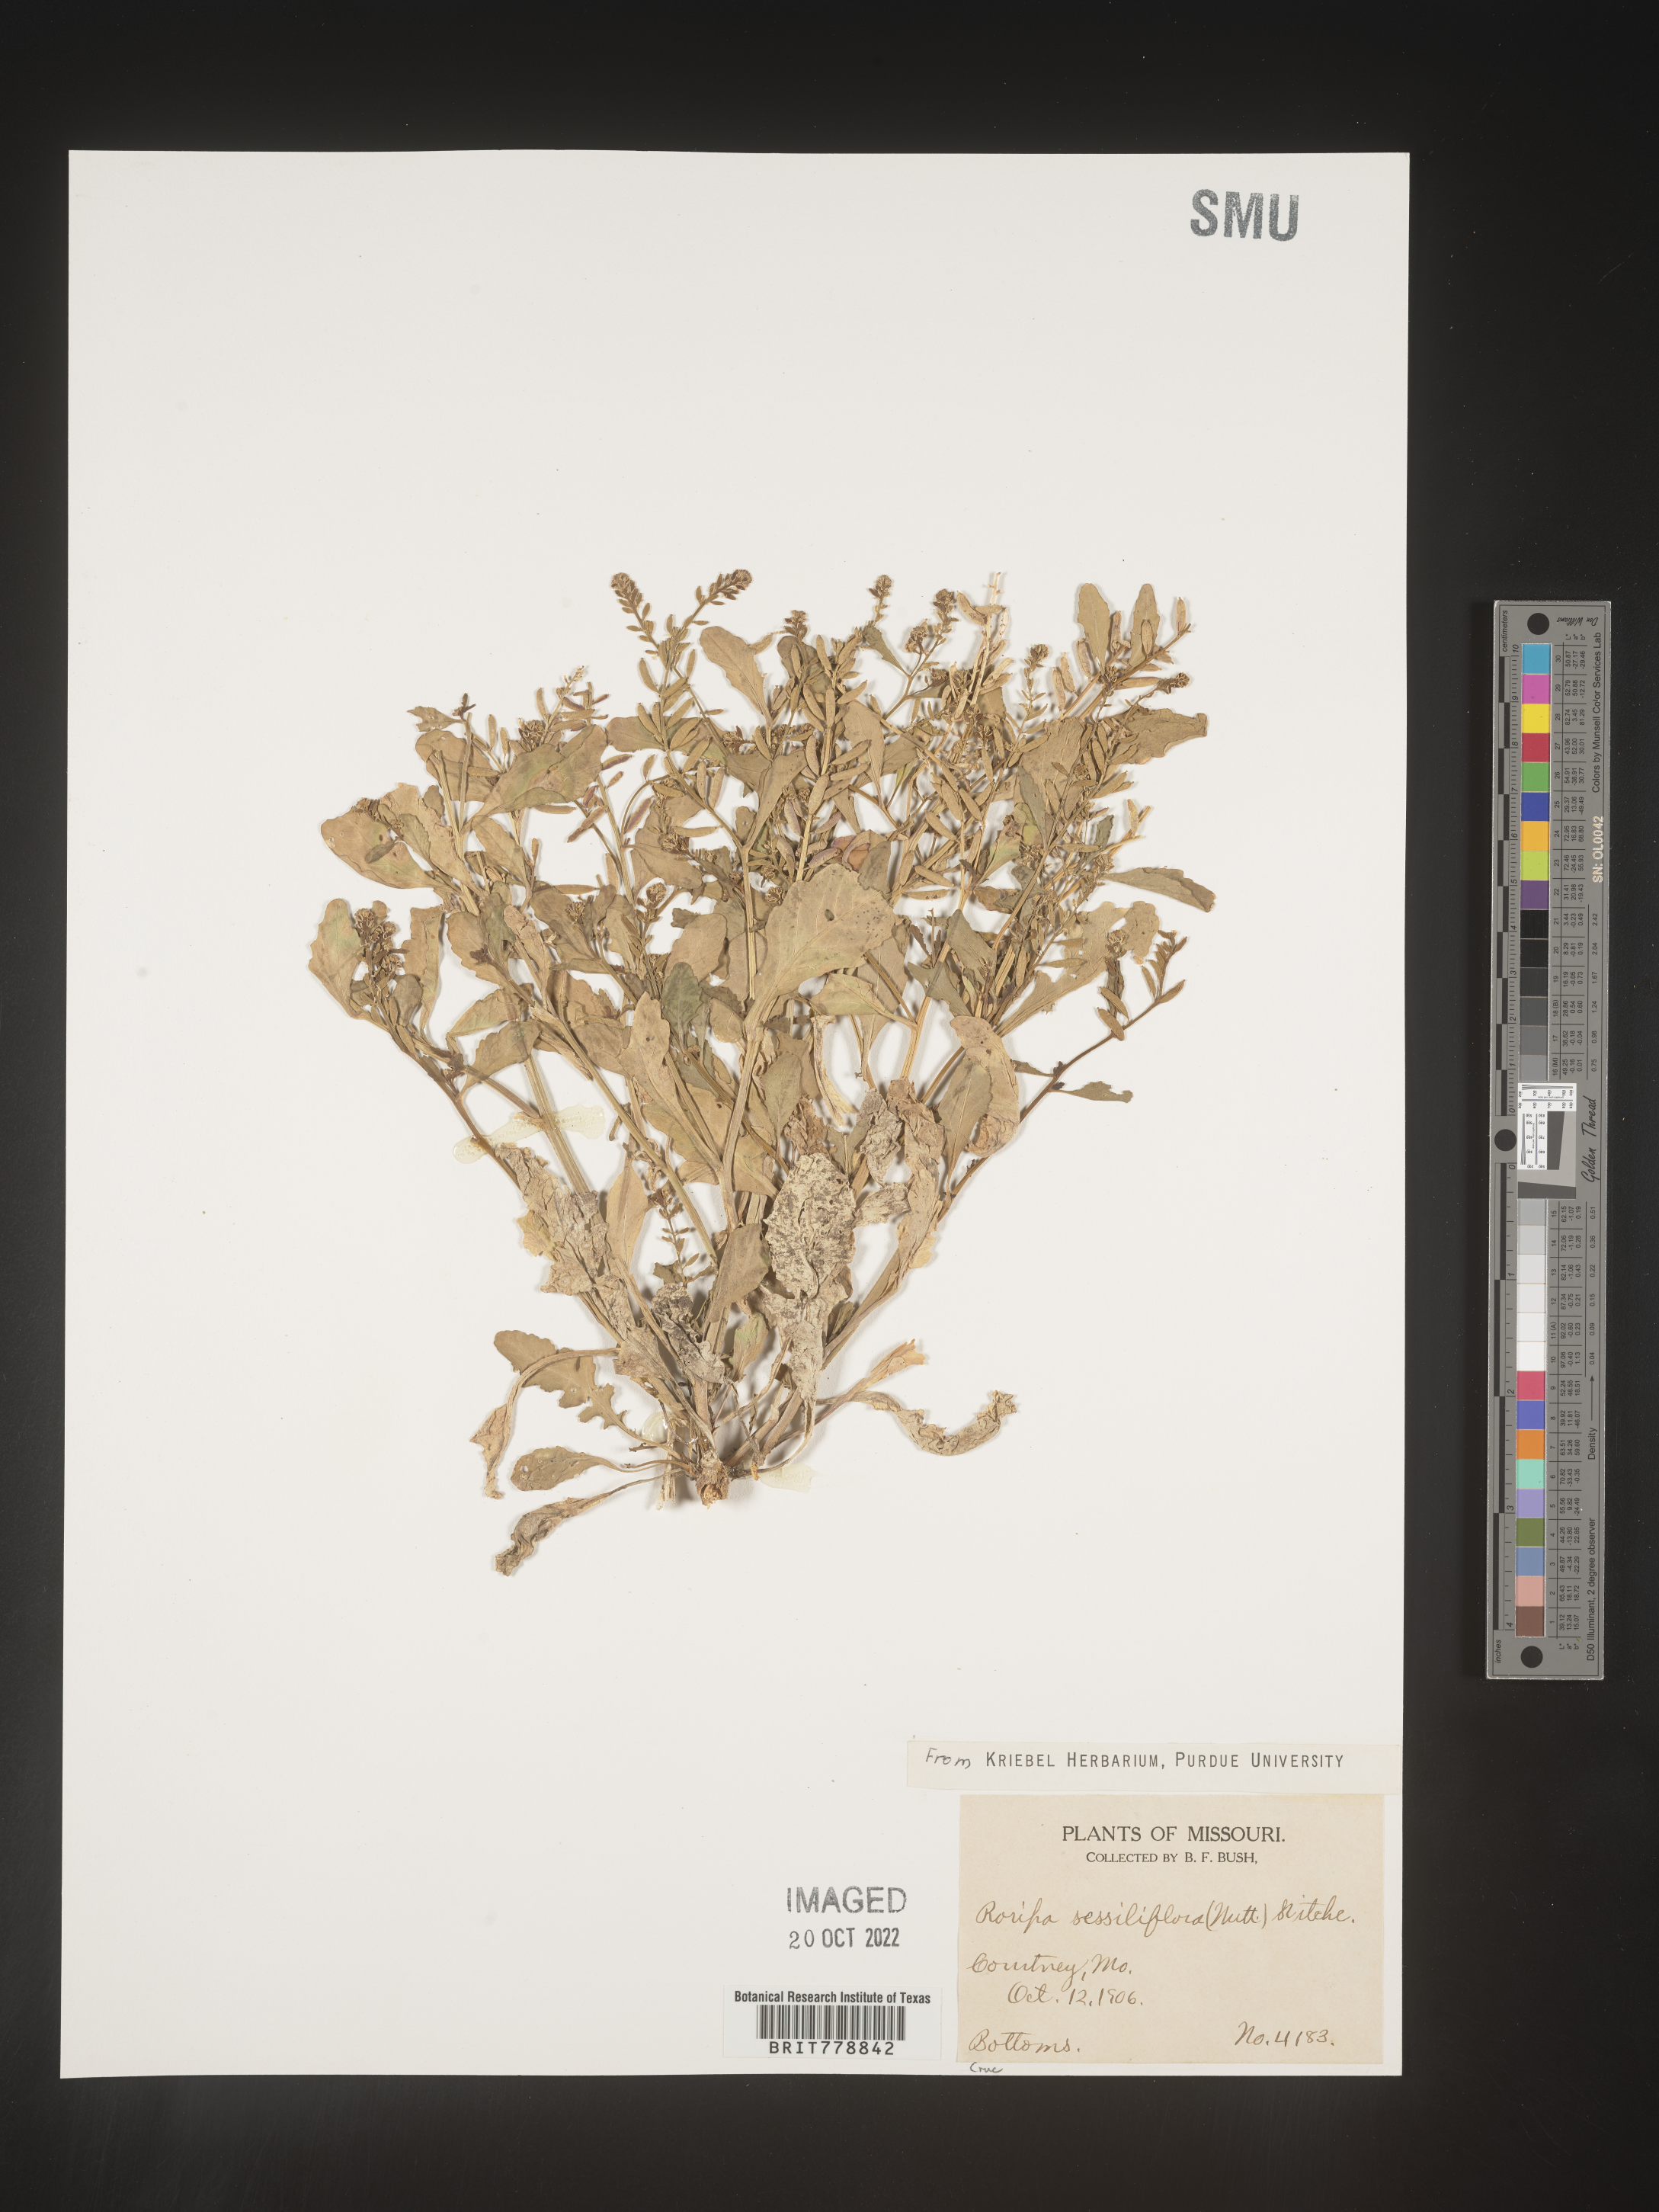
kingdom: Plantae
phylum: Tracheophyta
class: Magnoliopsida
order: Brassicales
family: Brassicaceae
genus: Rorippa
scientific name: Rorippa sessiliflora
